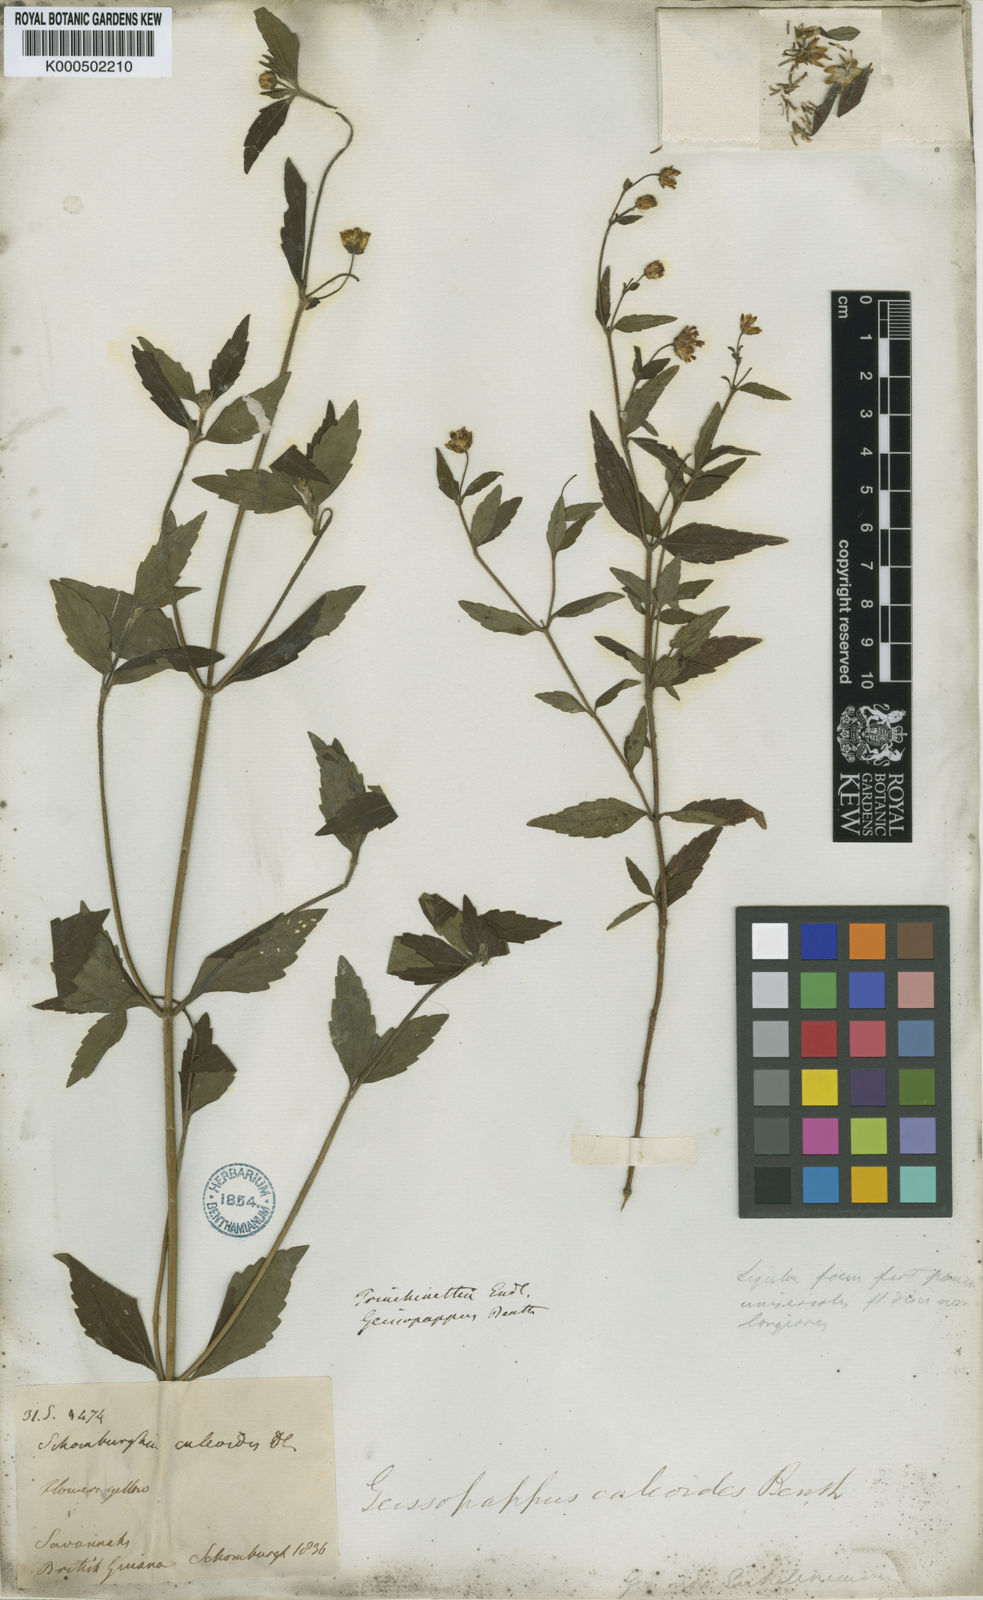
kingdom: Plantae
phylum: Tracheophyta
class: Magnoliopsida
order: Asterales
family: Asteraceae
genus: Calea
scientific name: Calea caleoides
